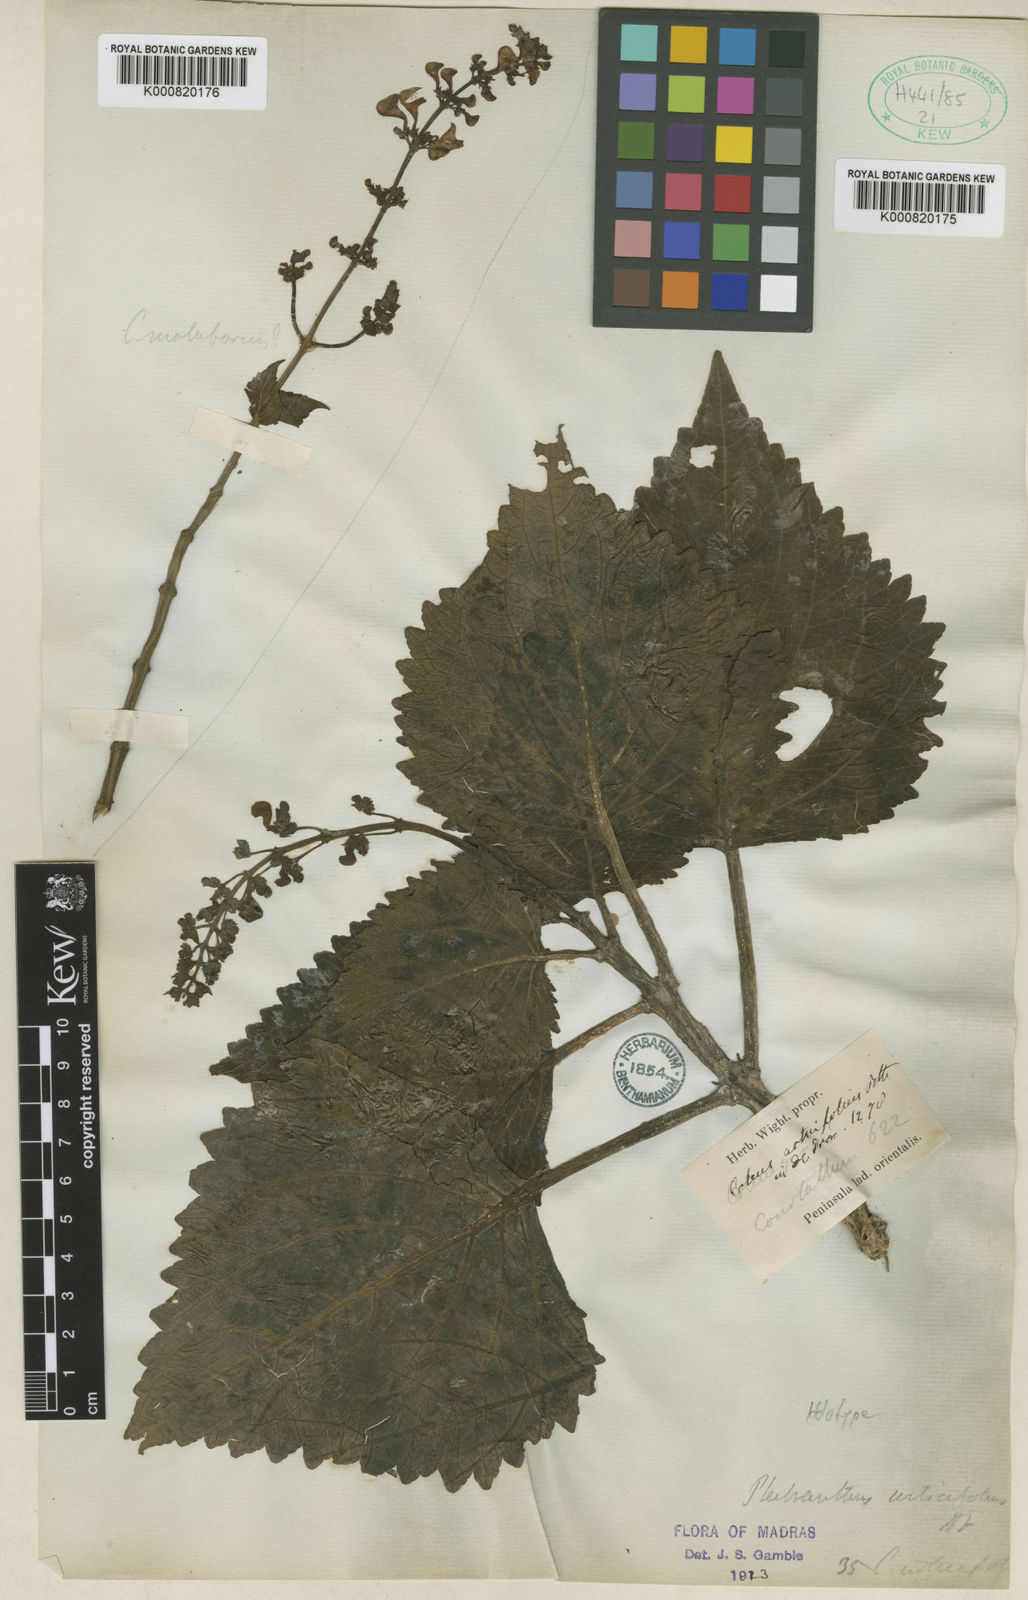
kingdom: Plantae
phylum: Tracheophyta
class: Magnoliopsida
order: Lamiales
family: Lamiaceae
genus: Coleus
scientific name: Coleus urticifolius
